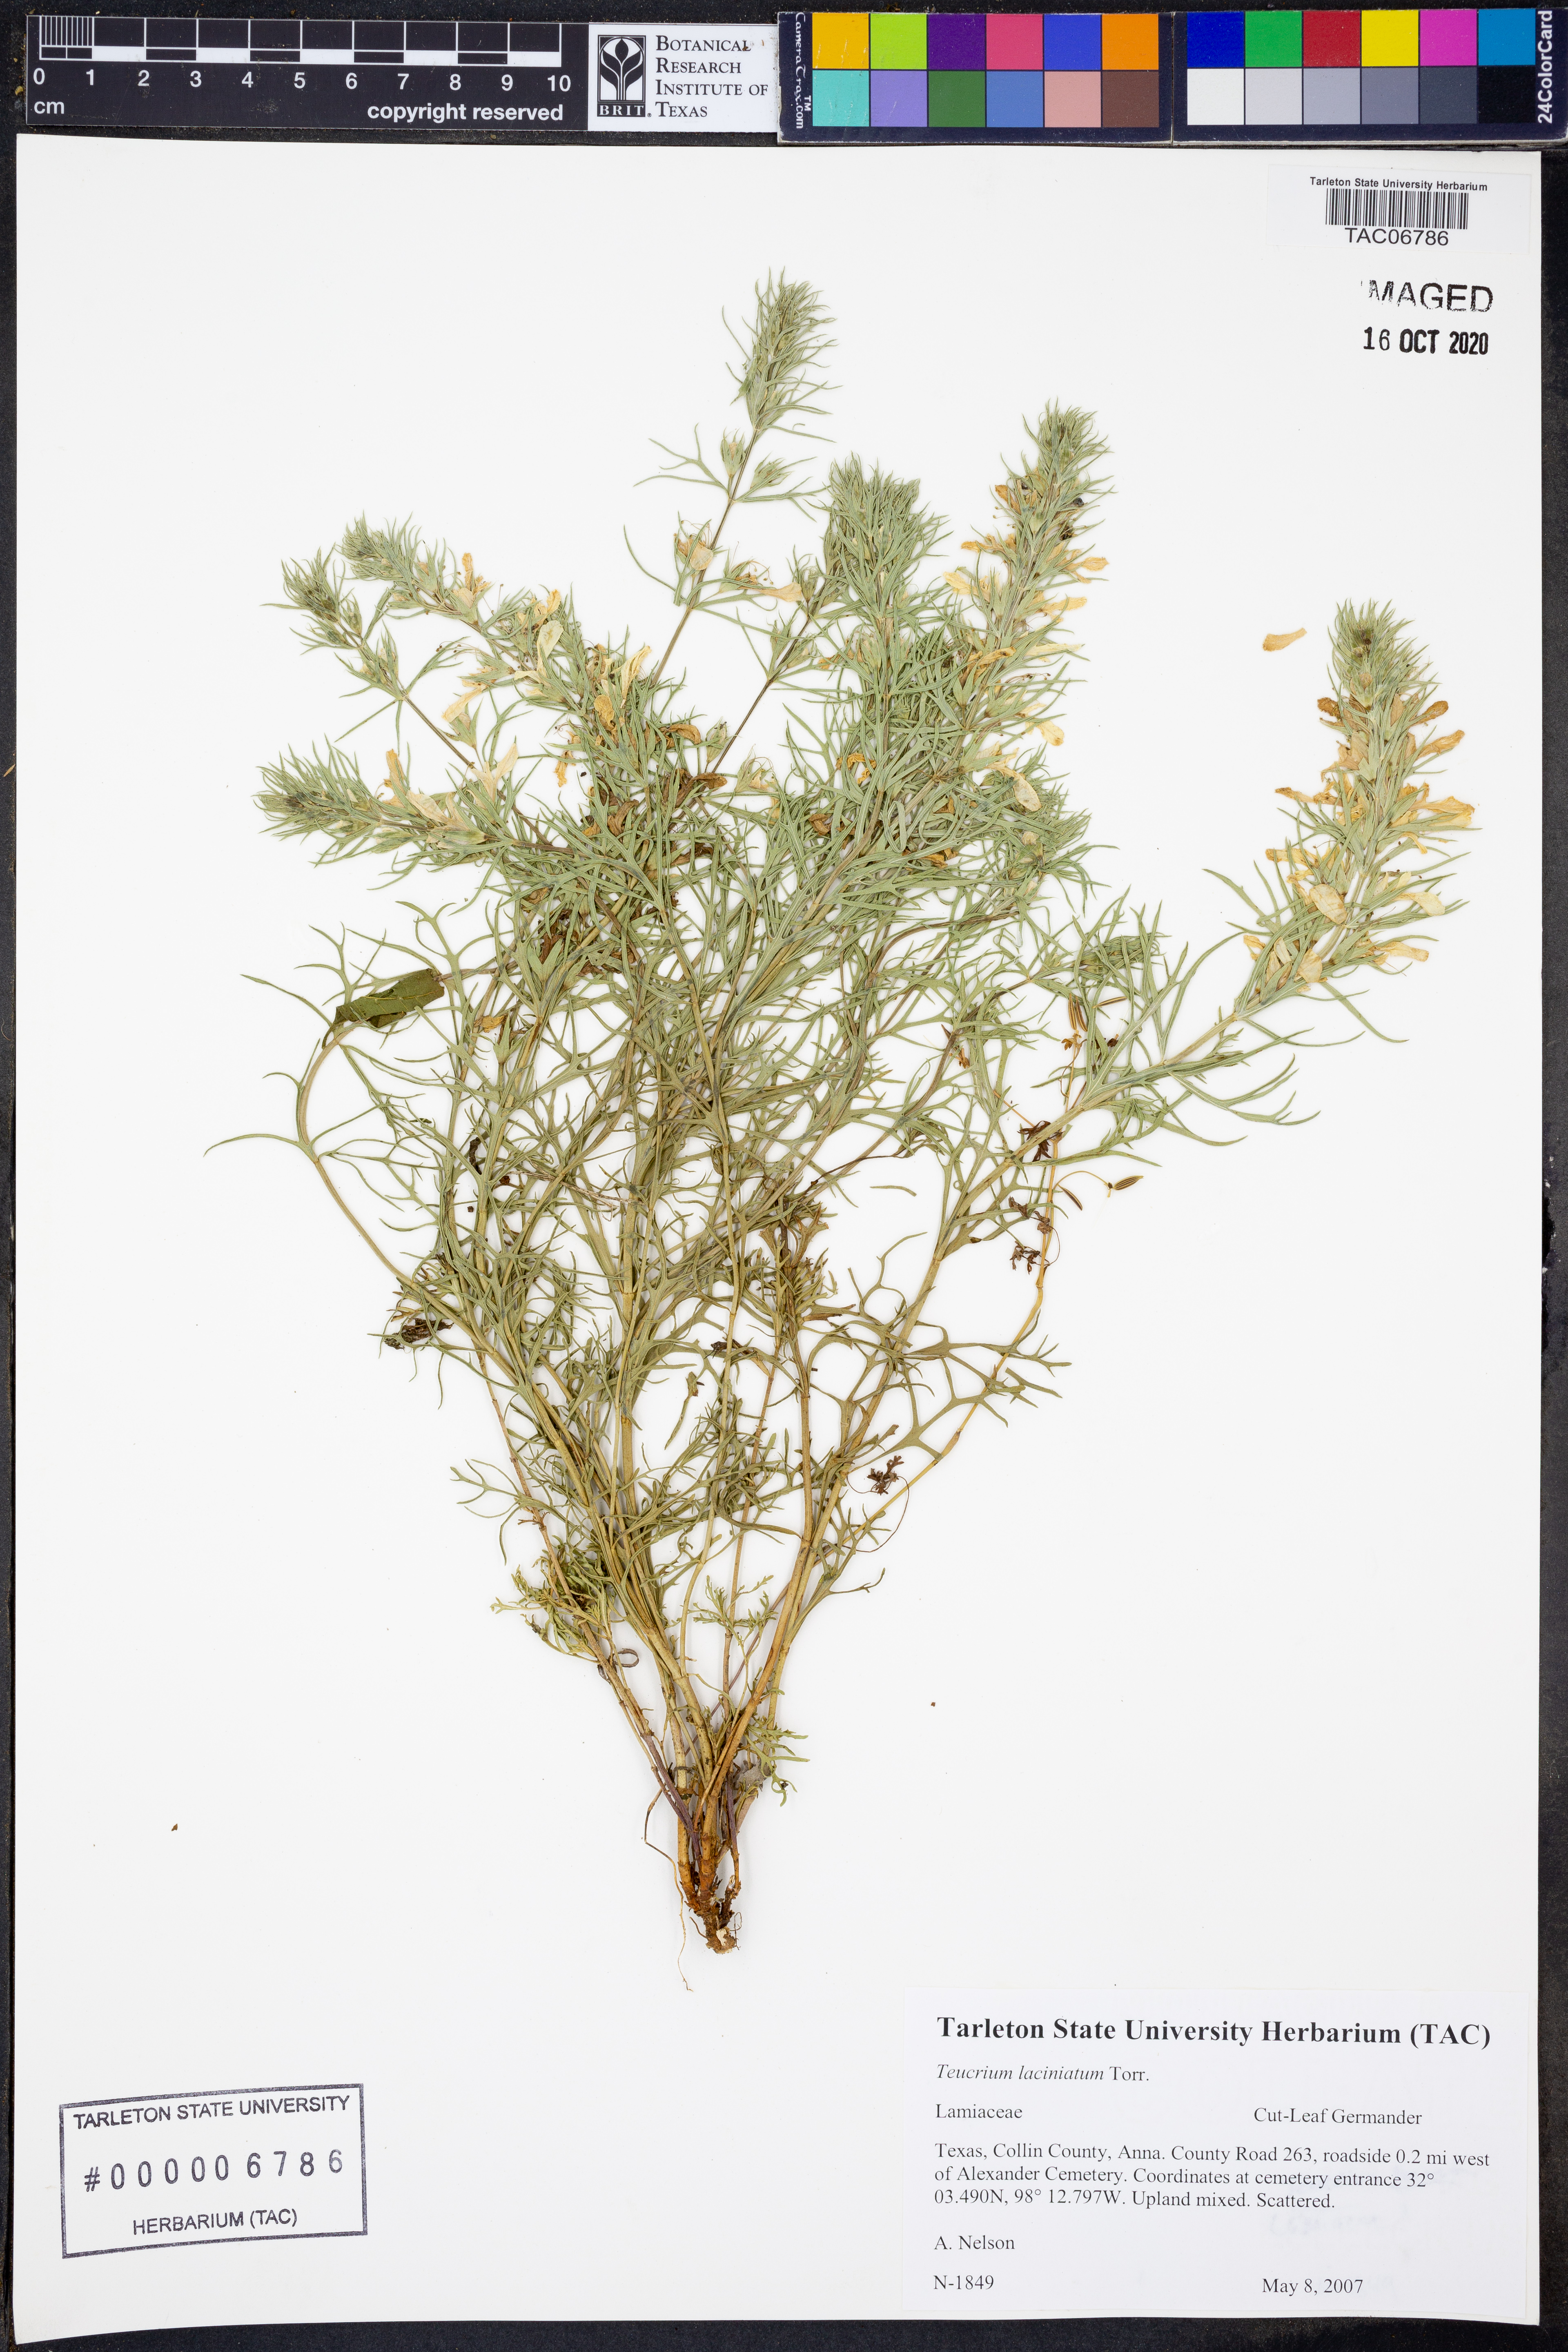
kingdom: Plantae
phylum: Tracheophyta
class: Magnoliopsida
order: Lamiales
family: Lamiaceae
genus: Teucrium
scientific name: Teucrium laciniatum
